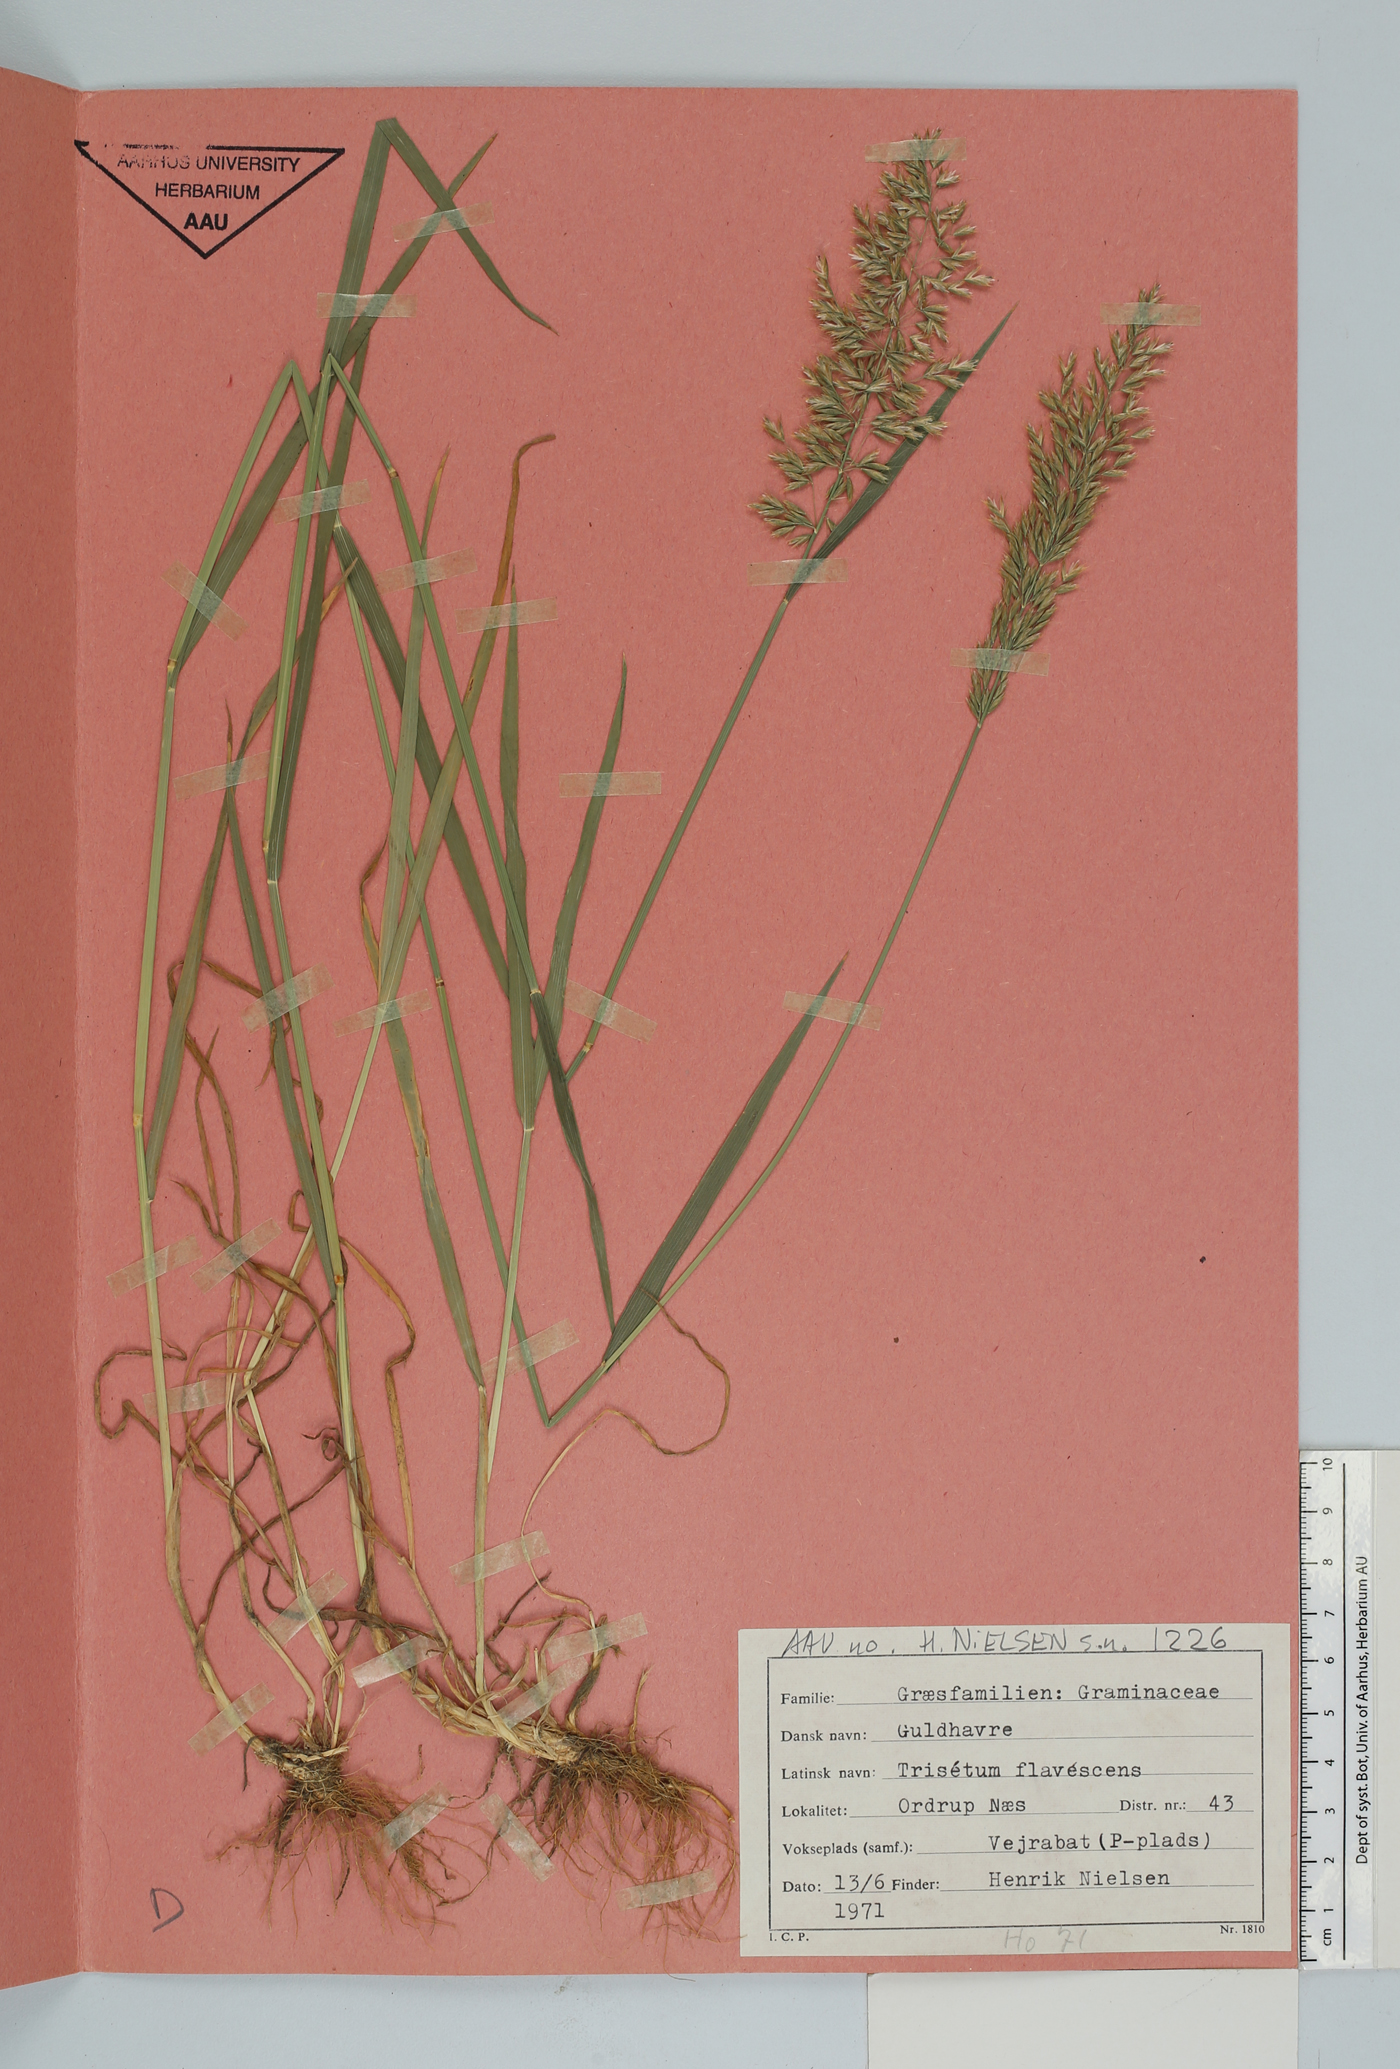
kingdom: Plantae
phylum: Tracheophyta
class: Liliopsida
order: Poales
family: Poaceae
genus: Trisetum
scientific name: Trisetum flavescens
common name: Yellow oat-grass
